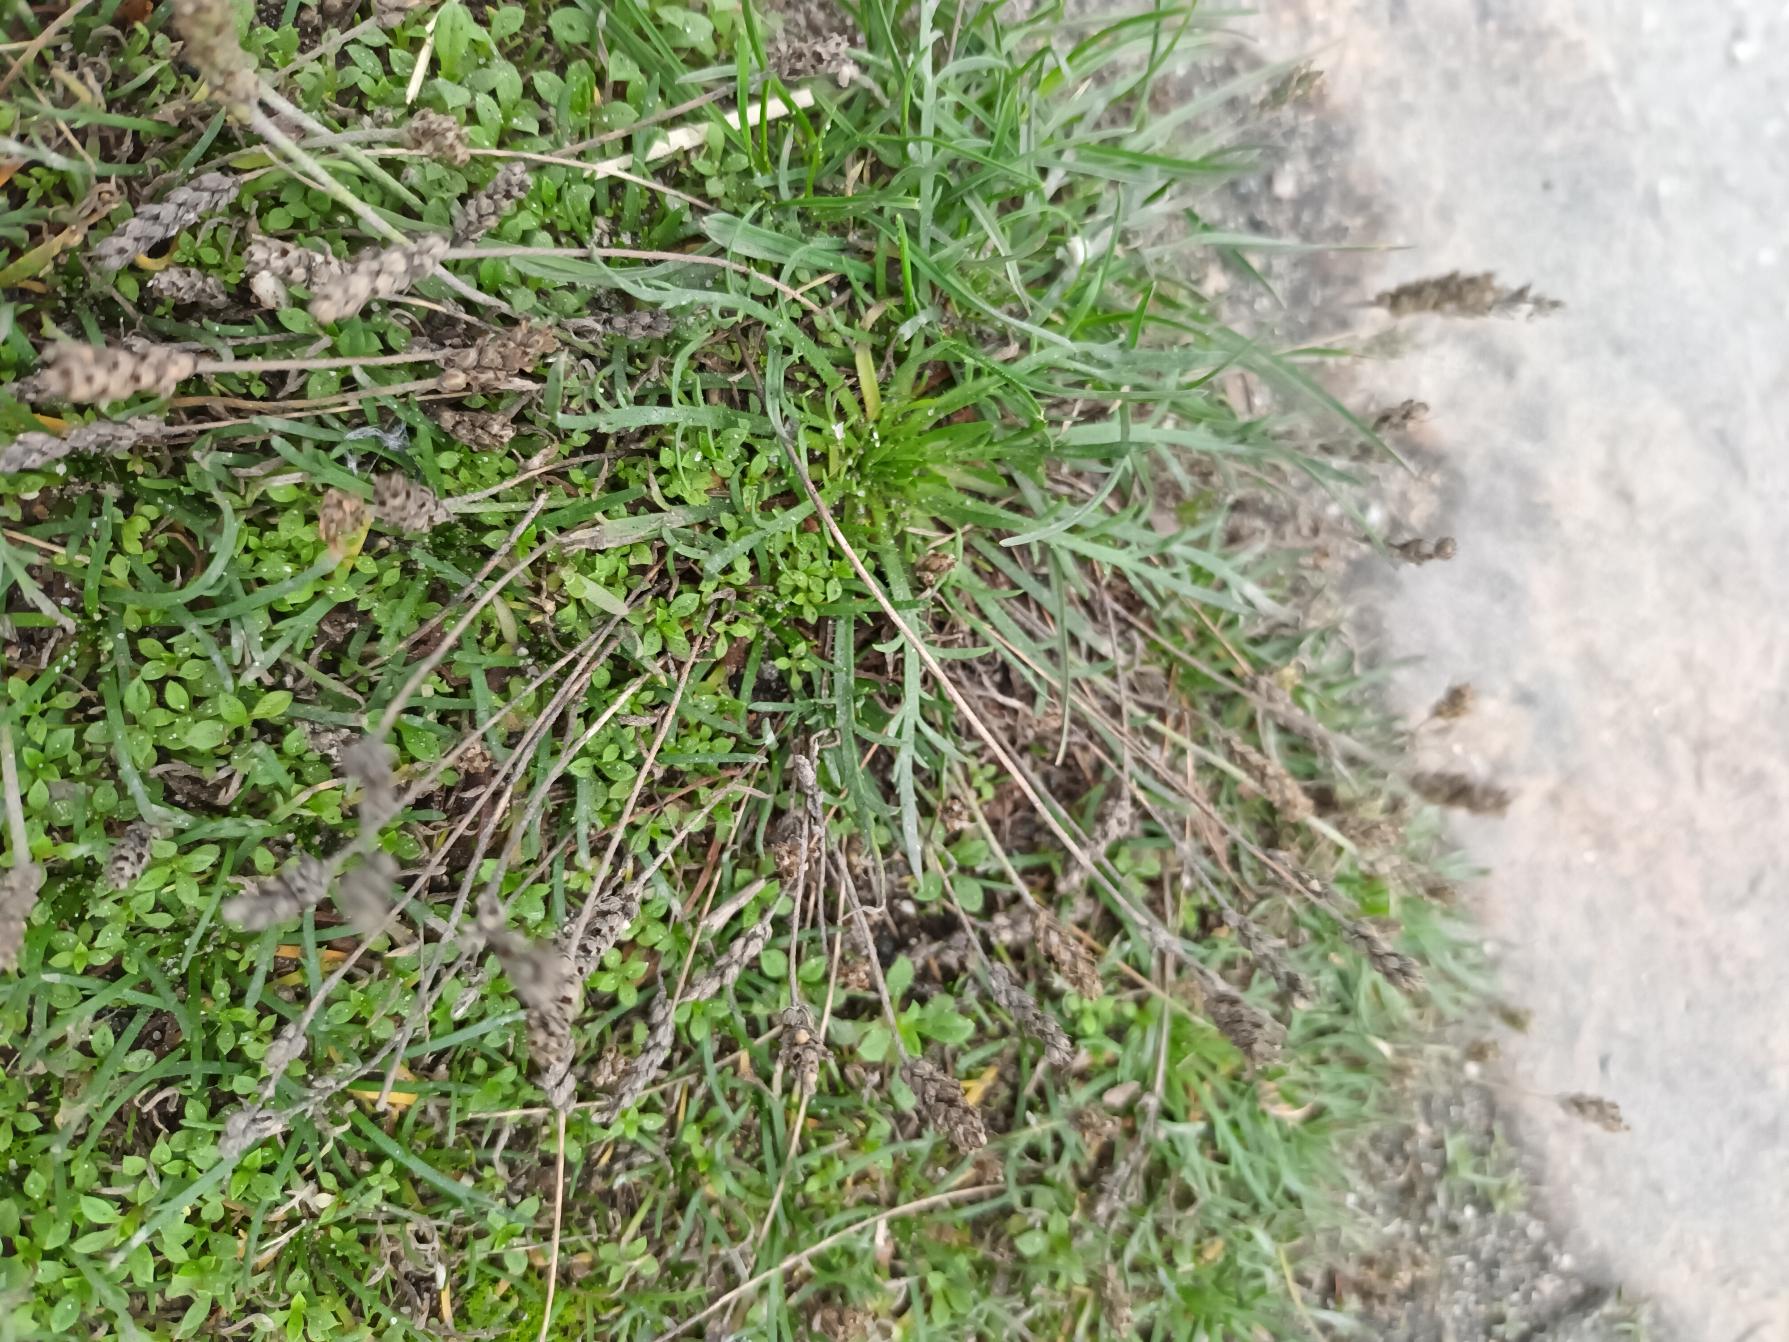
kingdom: Plantae
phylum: Tracheophyta
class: Magnoliopsida
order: Lamiales
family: Plantaginaceae
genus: Plantago
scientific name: Plantago coronopus
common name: Fliget vejbred
